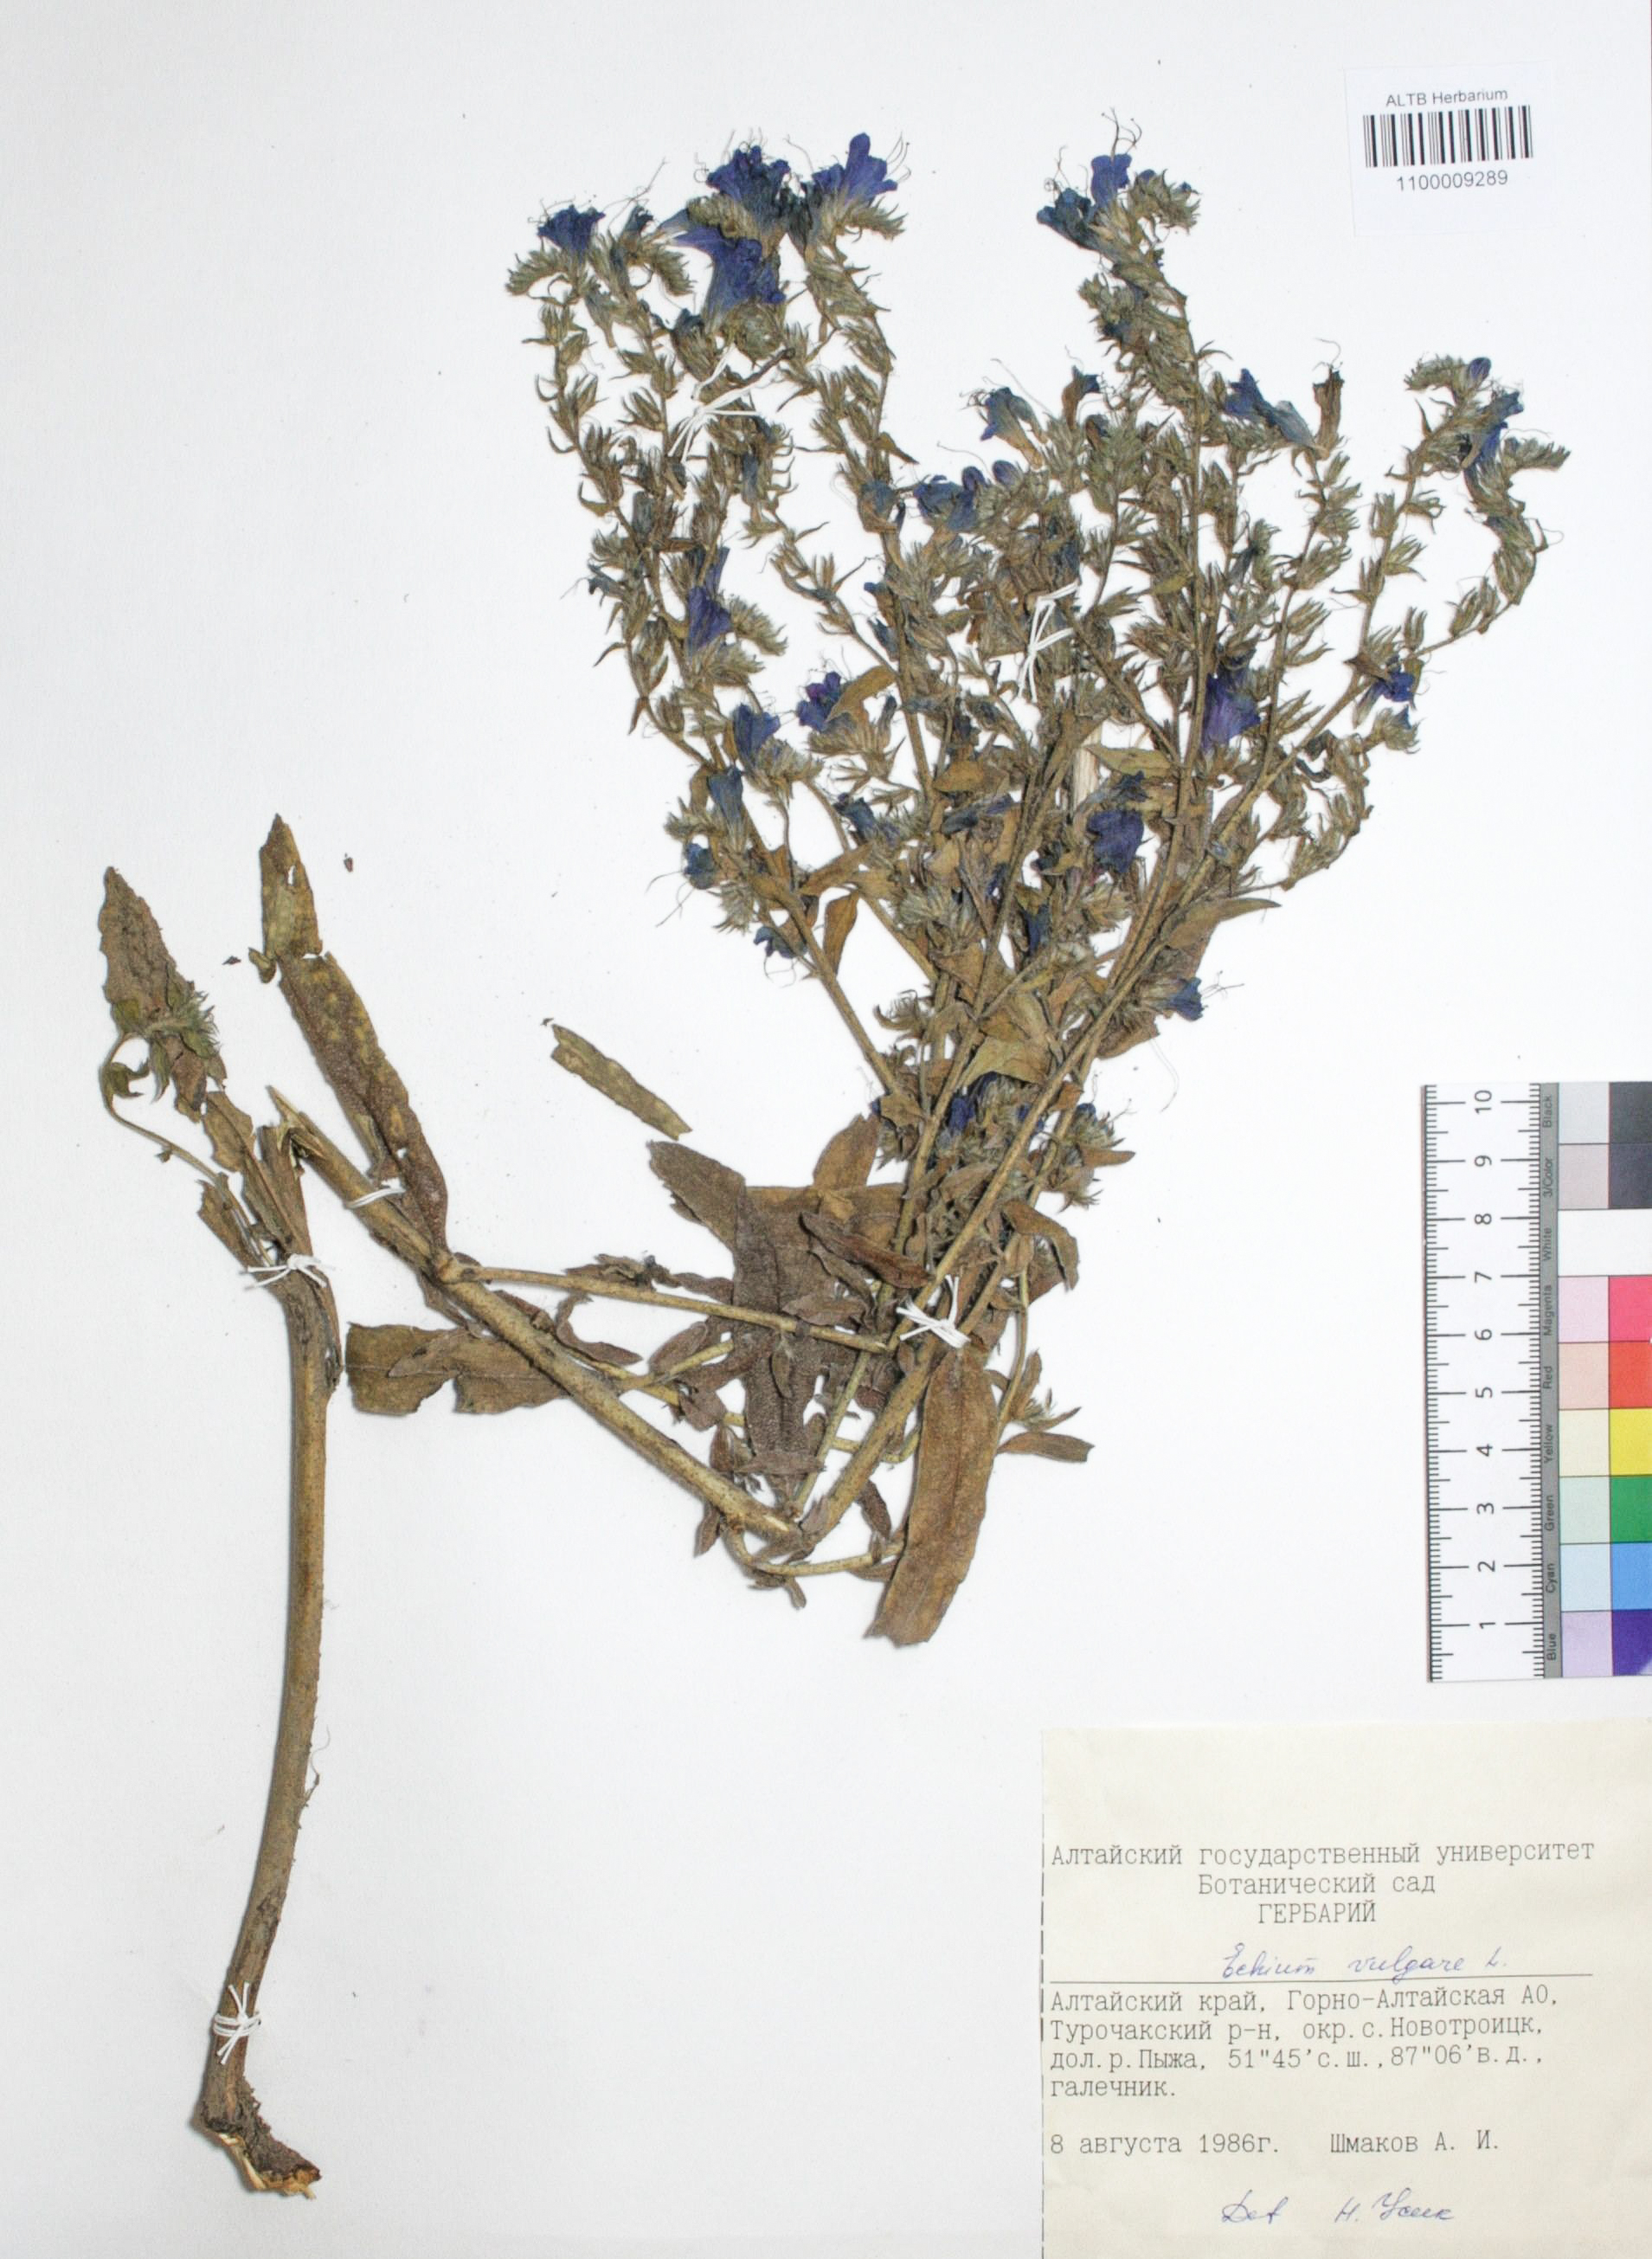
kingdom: Plantae
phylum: Tracheophyta
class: Magnoliopsida
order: Boraginales
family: Boraginaceae
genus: Echium
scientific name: Echium vulgare
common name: Common viper's bugloss
